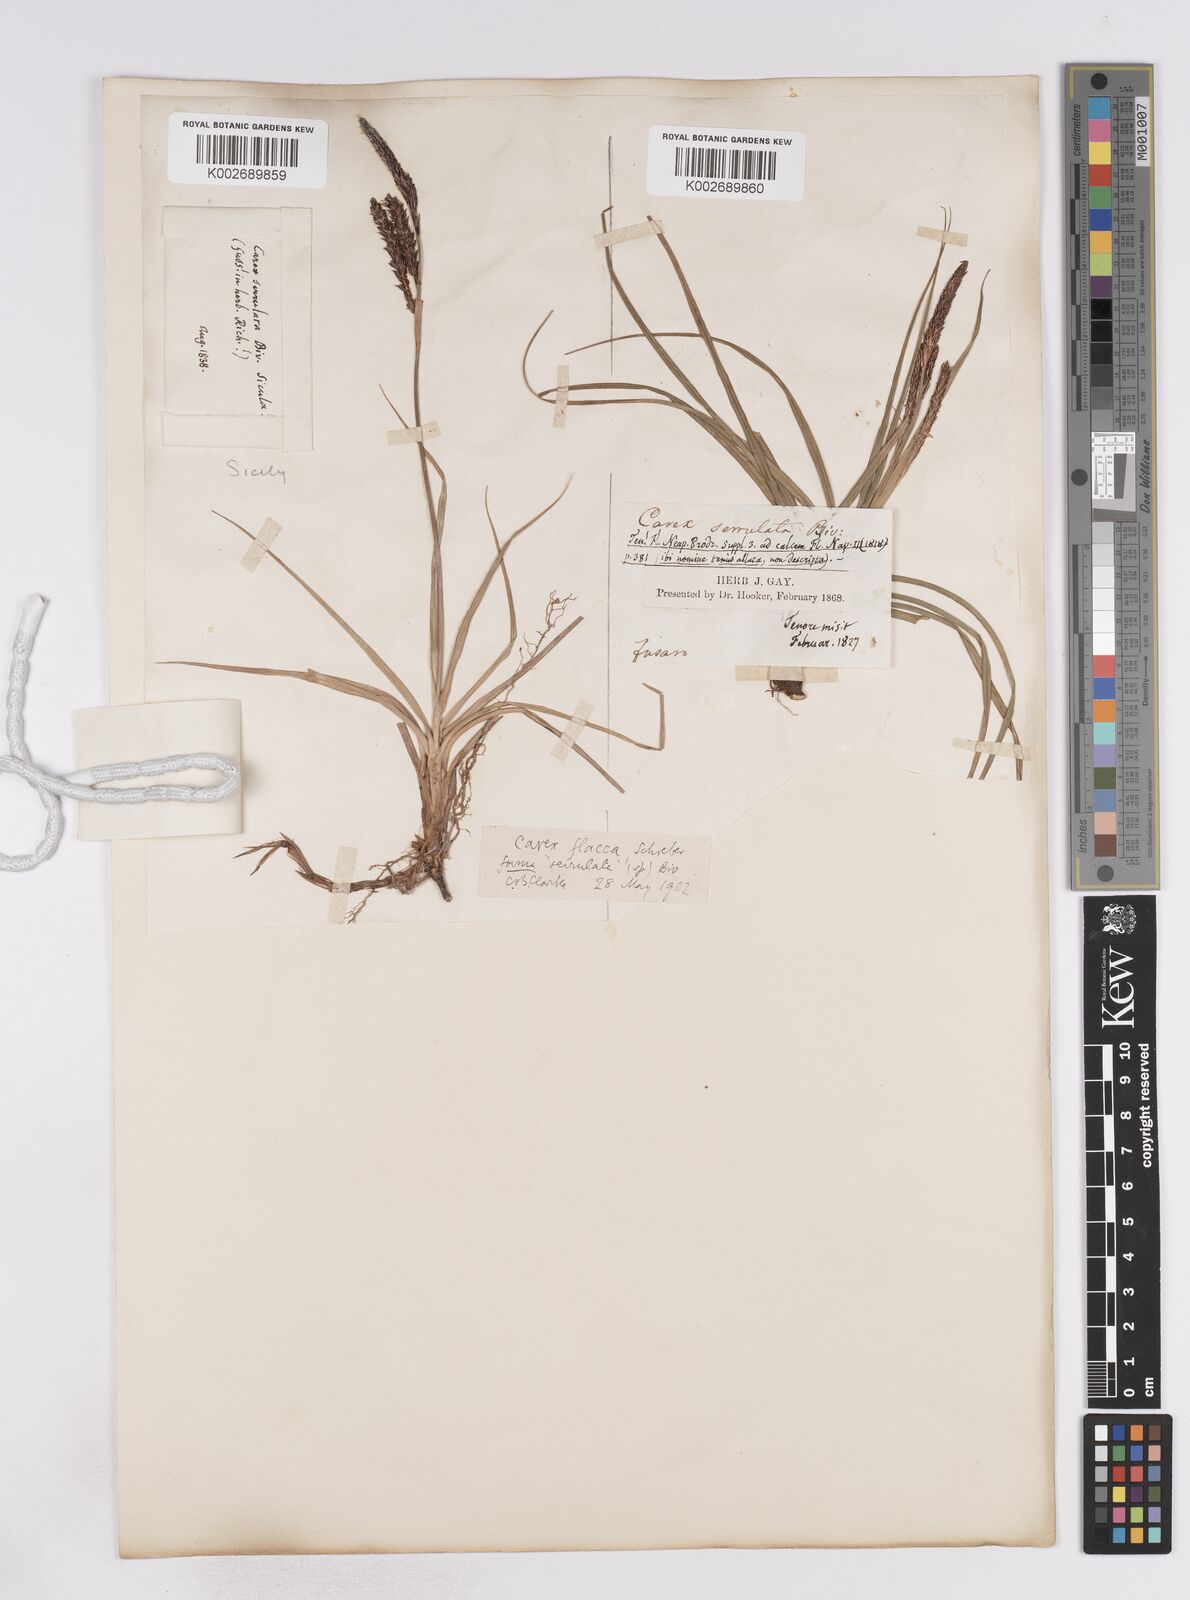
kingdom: Plantae
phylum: Tracheophyta
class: Liliopsida
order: Poales
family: Cyperaceae
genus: Carex
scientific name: Carex flacca
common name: Glaucous sedge
